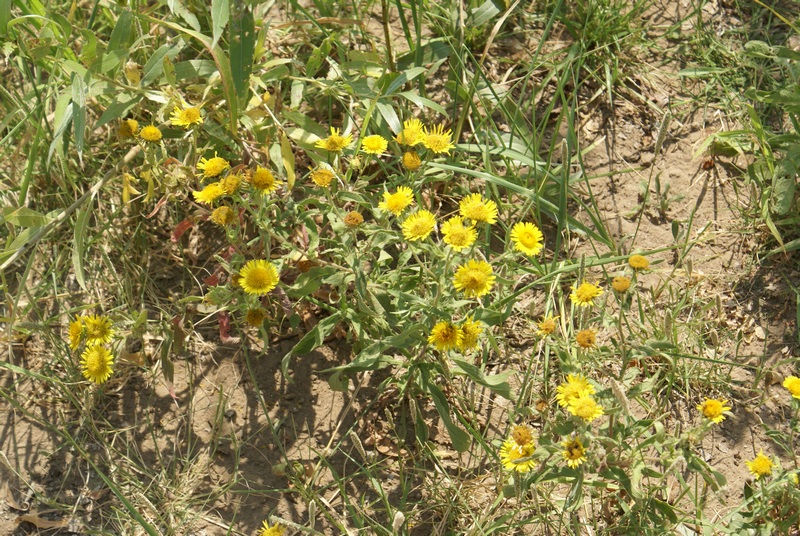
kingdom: Plantae
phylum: Tracheophyta
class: Magnoliopsida
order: Asterales
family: Asteraceae
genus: Pentanema
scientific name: Pentanema salicinum
